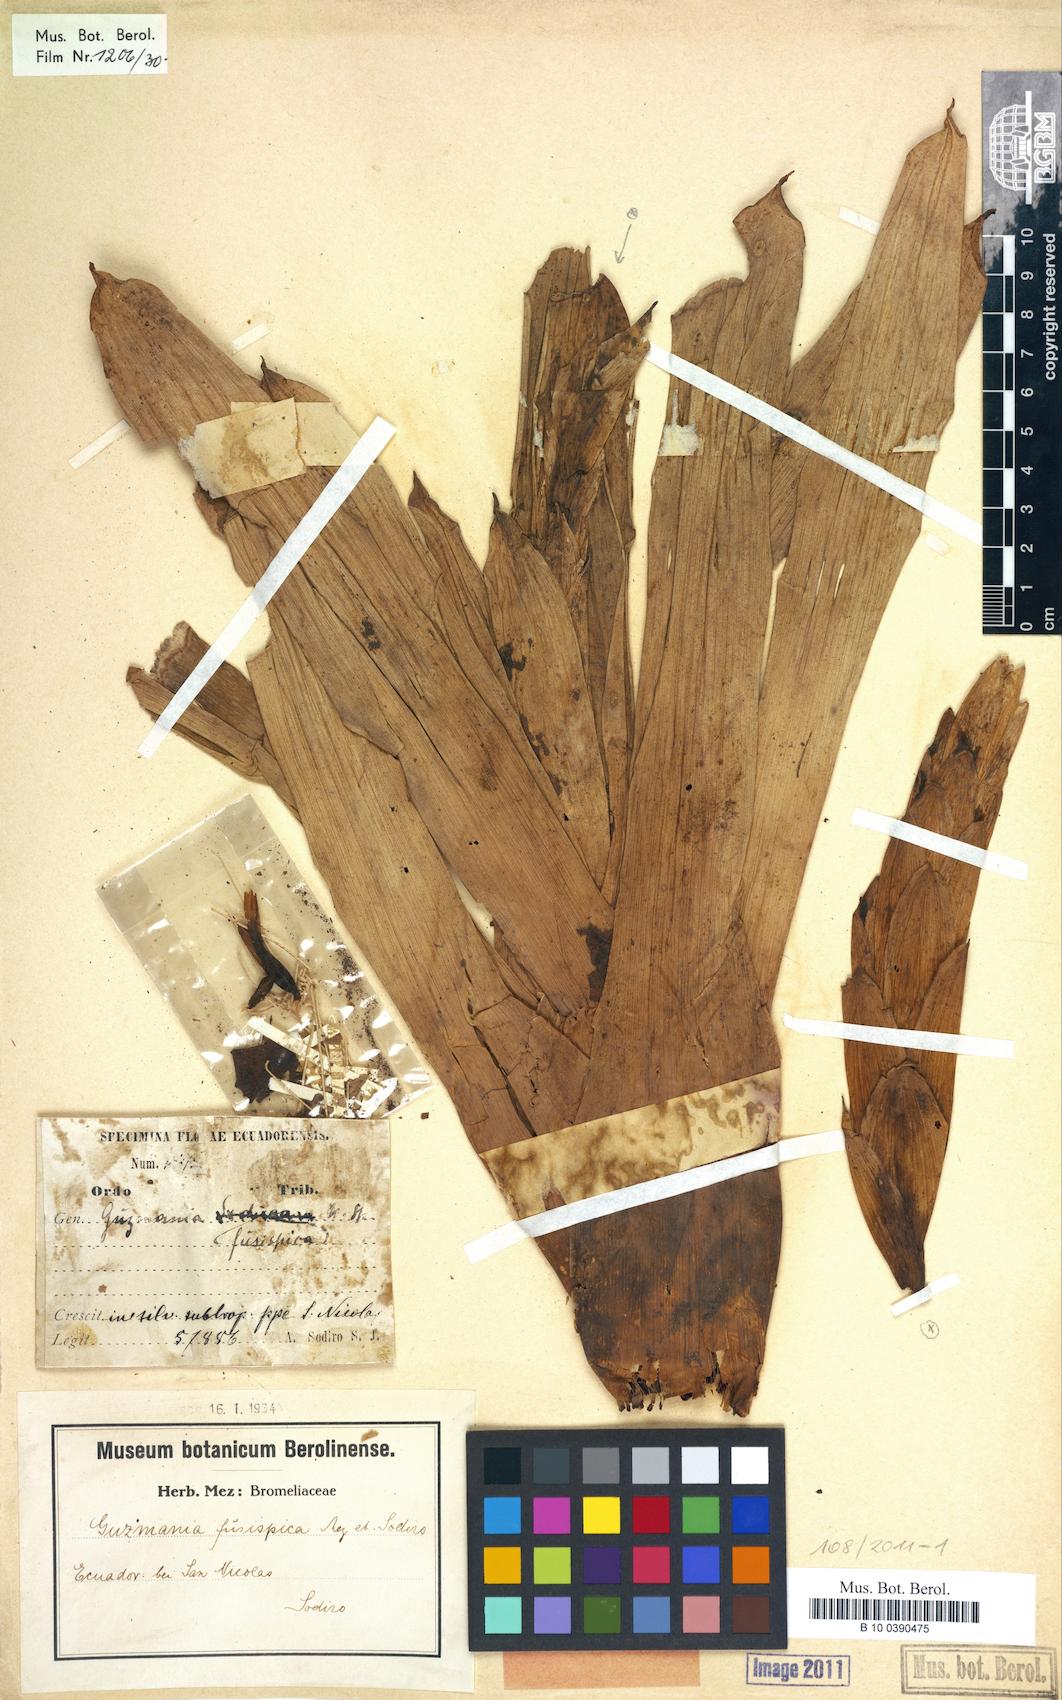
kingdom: Plantae
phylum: Tracheophyta
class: Liliopsida
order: Poales
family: Bromeliaceae
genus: Guzmania
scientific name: Guzmania bracteosa
